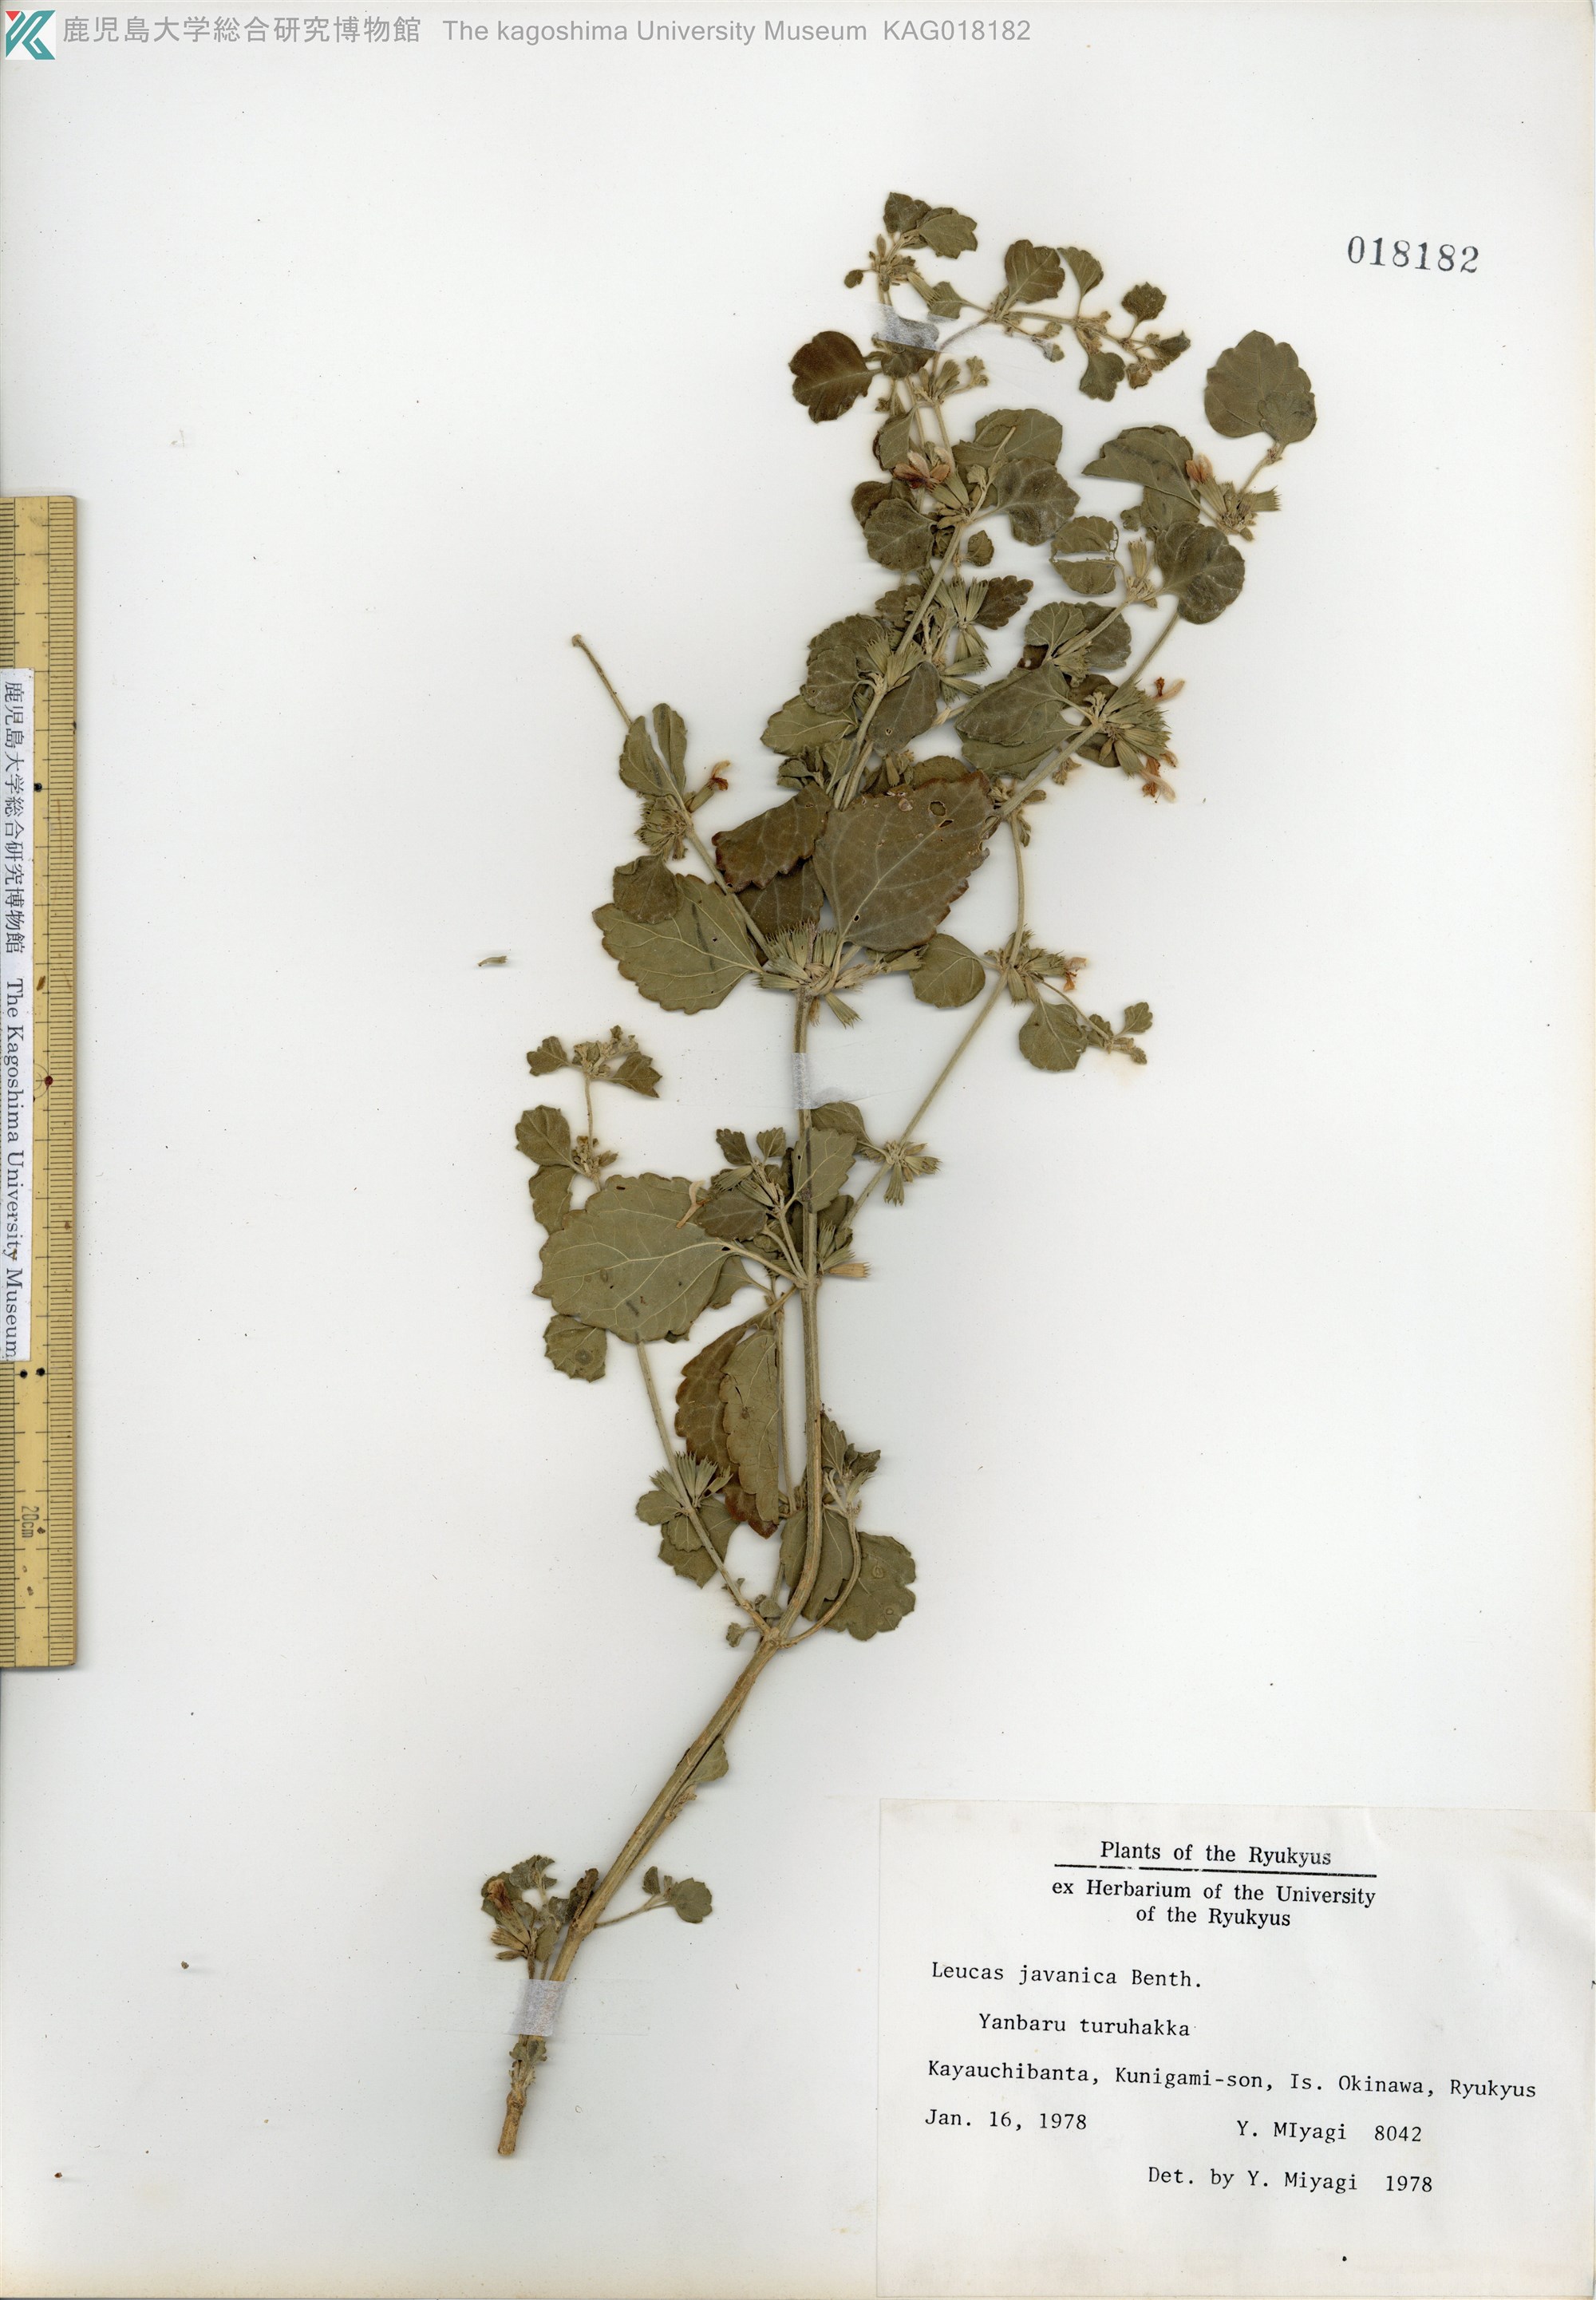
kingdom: Plantae
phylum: Tracheophyta
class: Magnoliopsida
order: Lamiales
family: Lamiaceae
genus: Leucas
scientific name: Leucas chinensis
